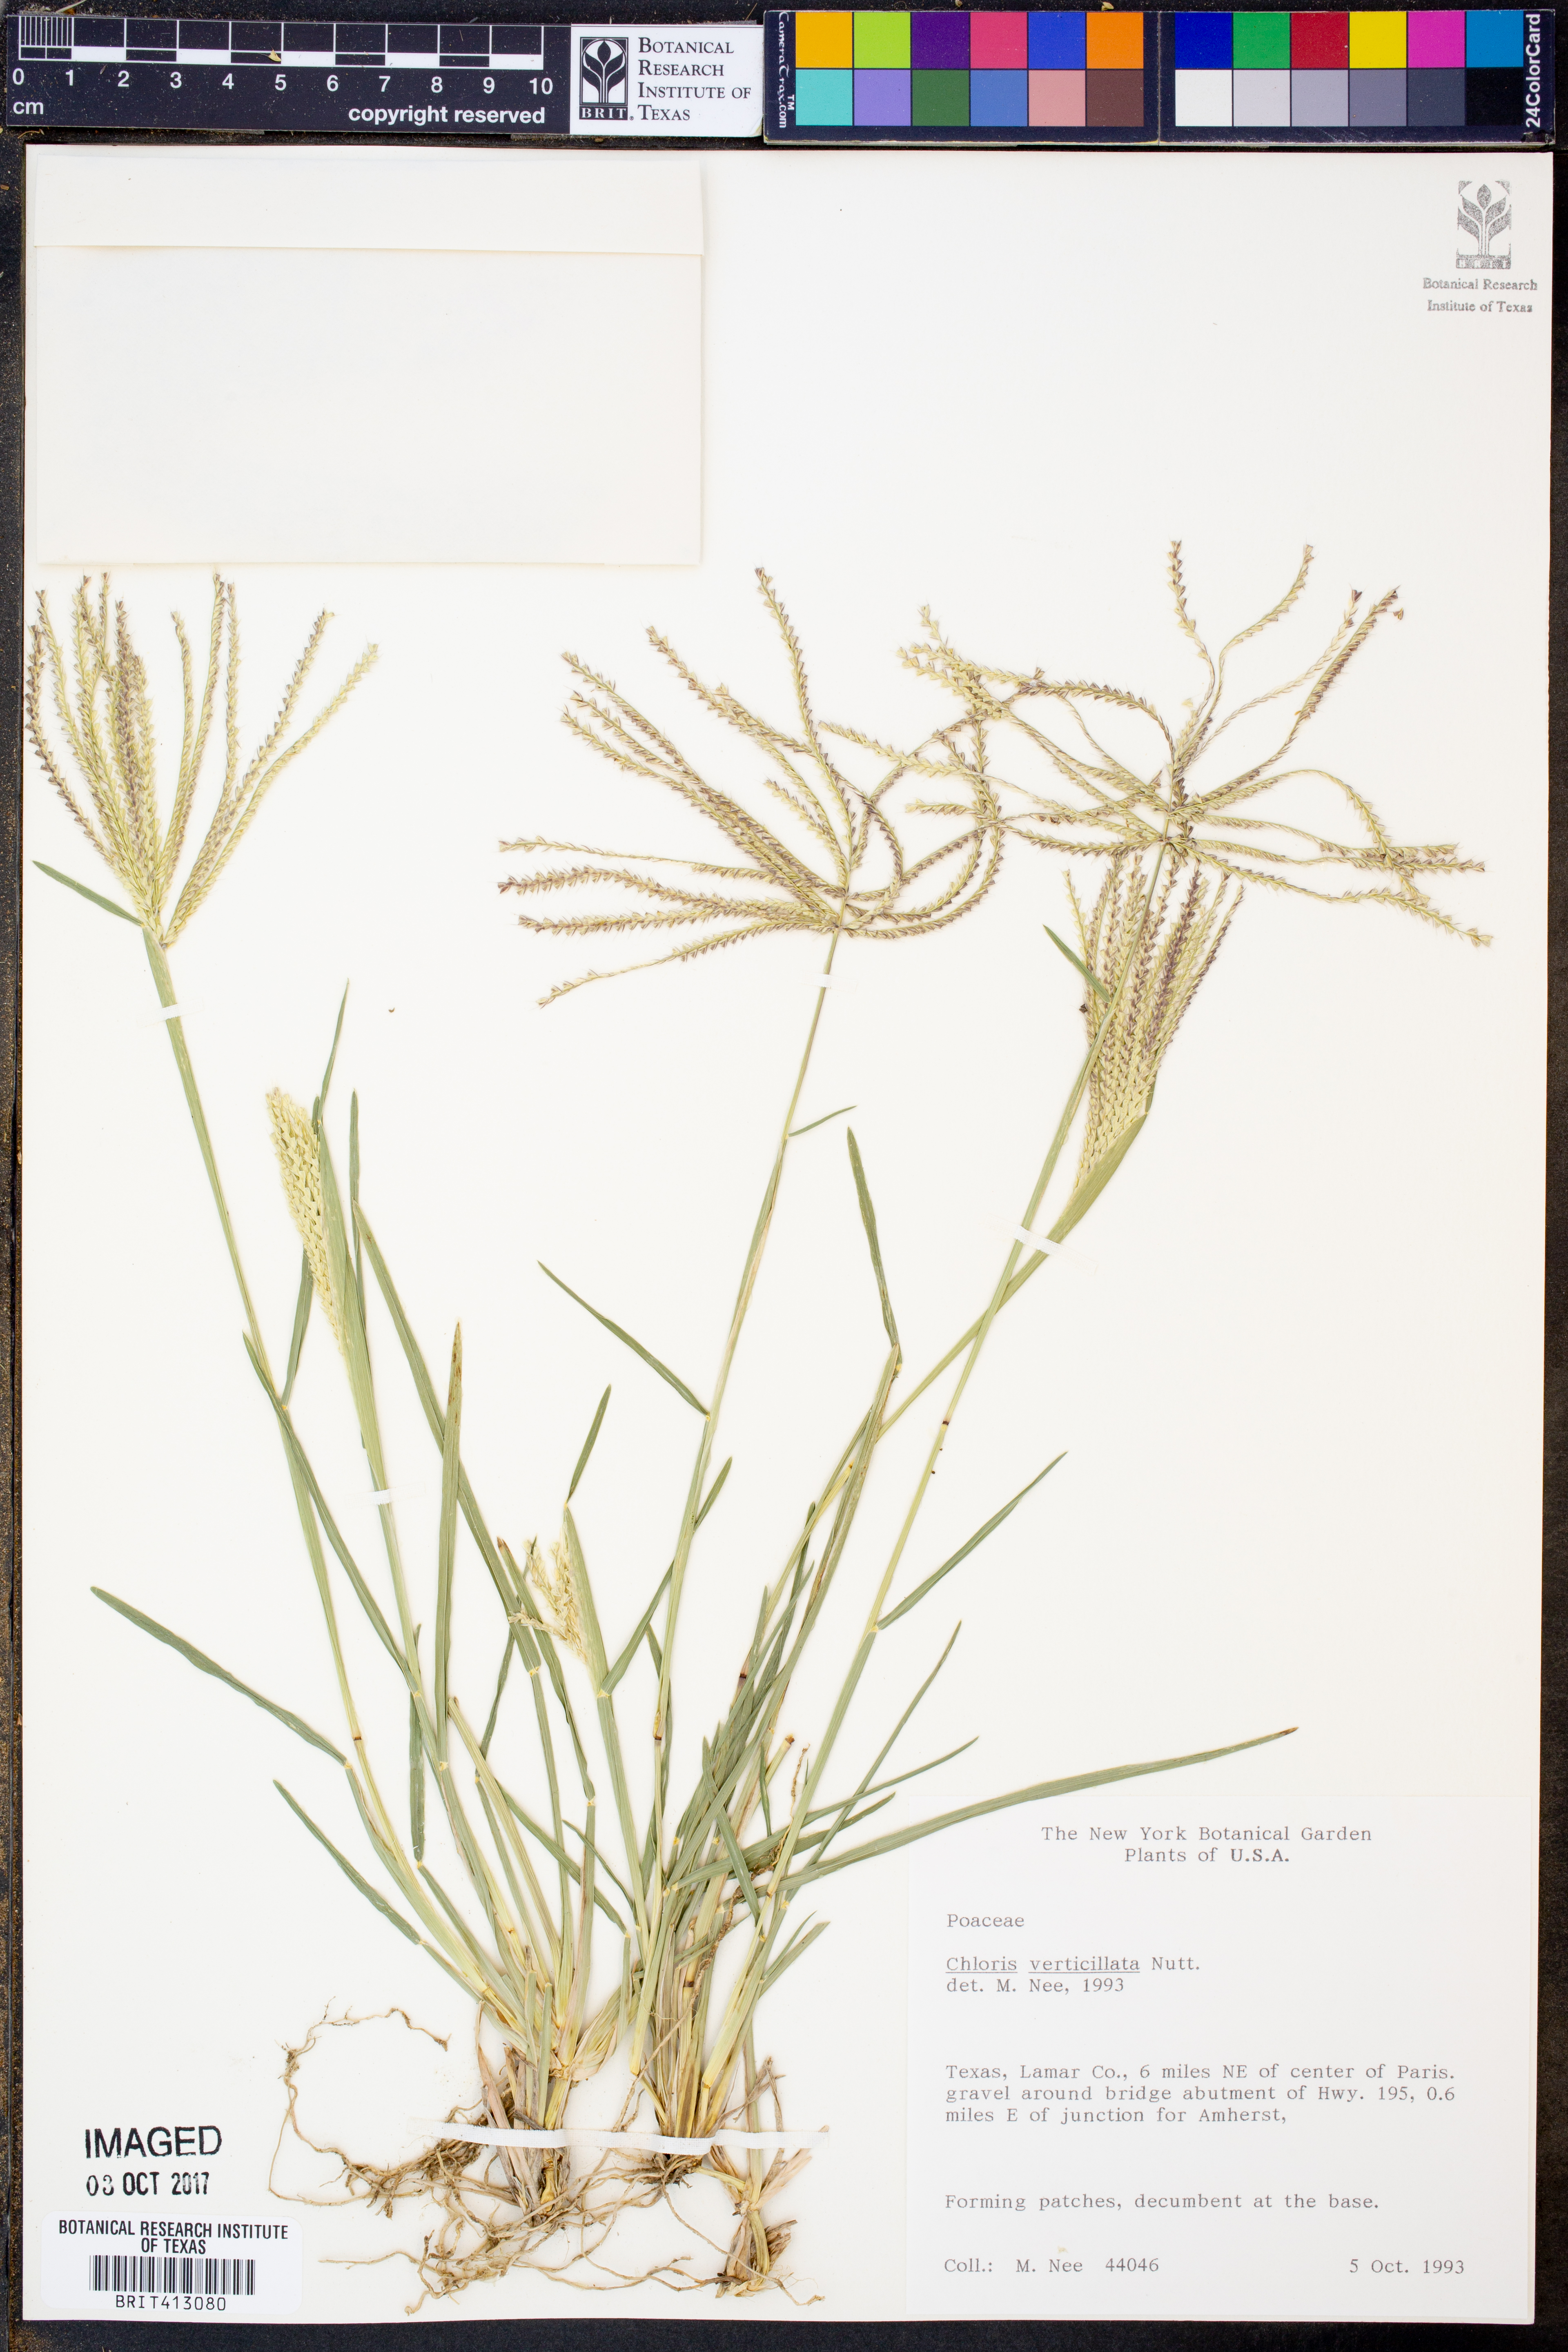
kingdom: Plantae
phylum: Tracheophyta
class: Liliopsida
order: Poales
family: Poaceae
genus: Chloris
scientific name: Chloris verticillata
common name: Tumble windmill grass
